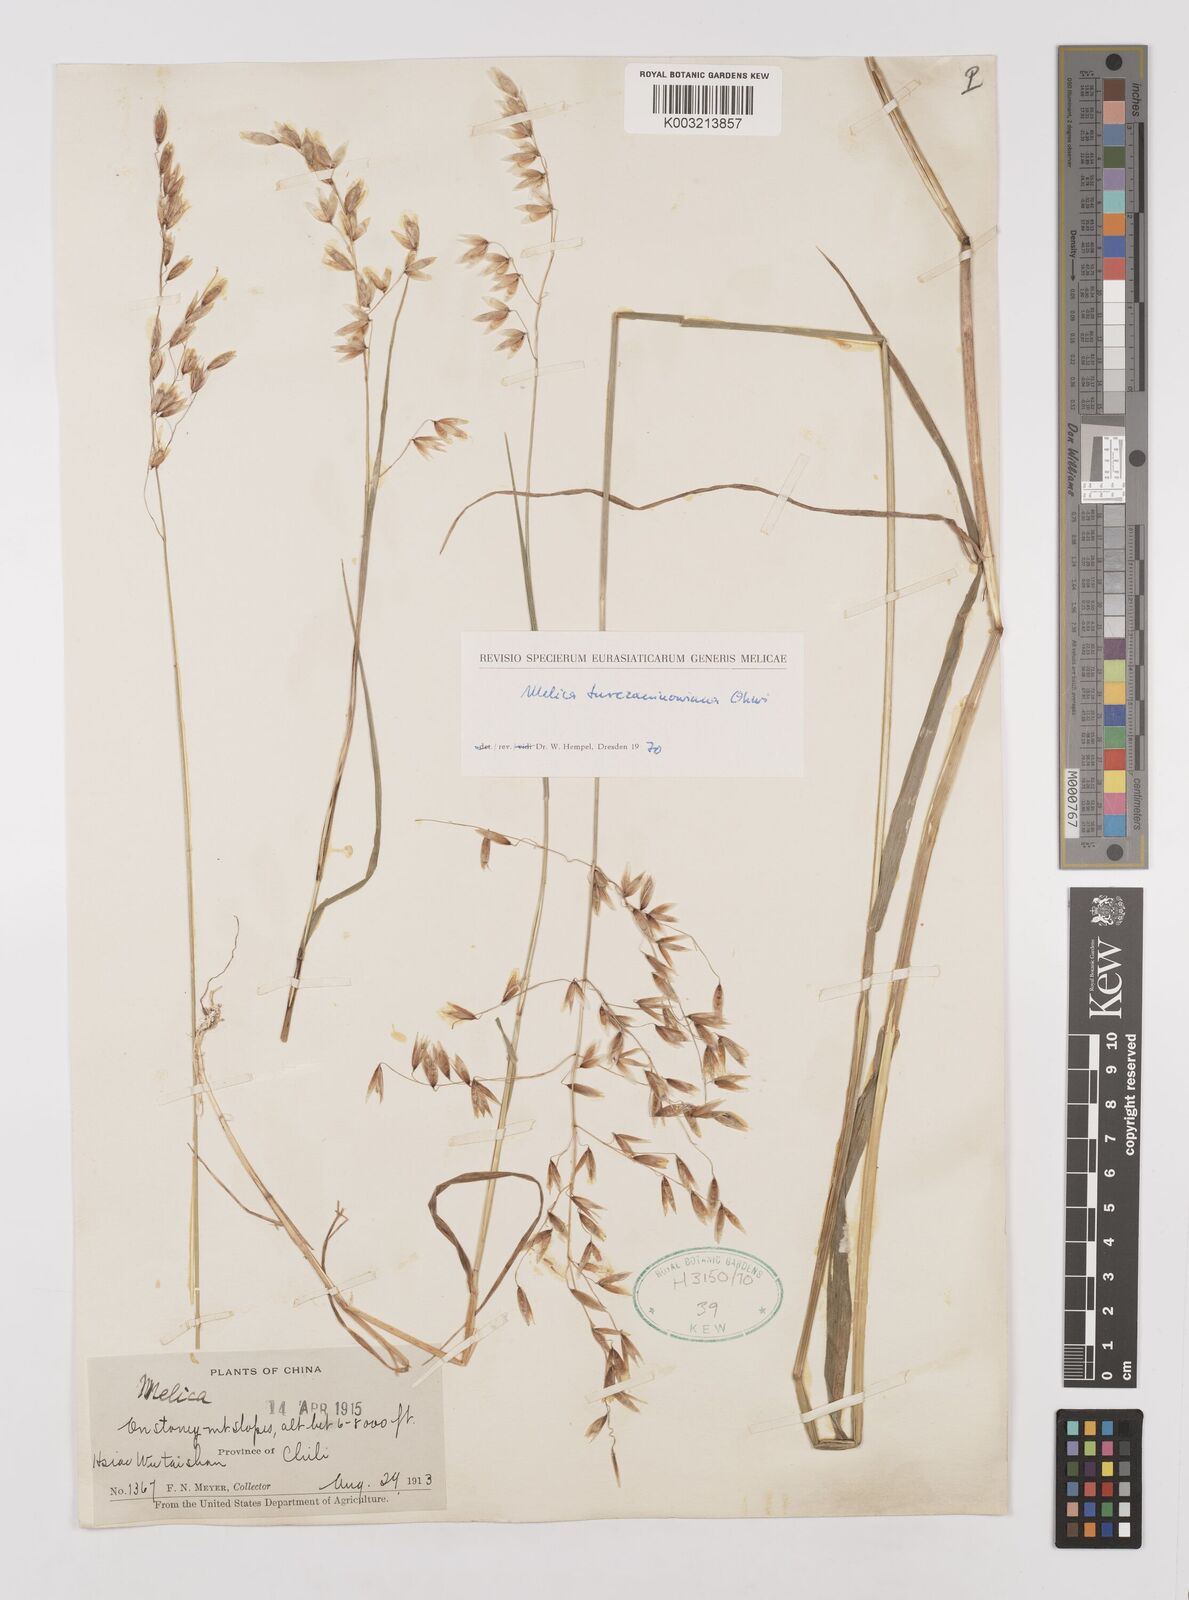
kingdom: Plantae
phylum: Tracheophyta
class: Liliopsida
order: Poales
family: Poaceae
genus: Melica
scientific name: Melica turczaninowiana
